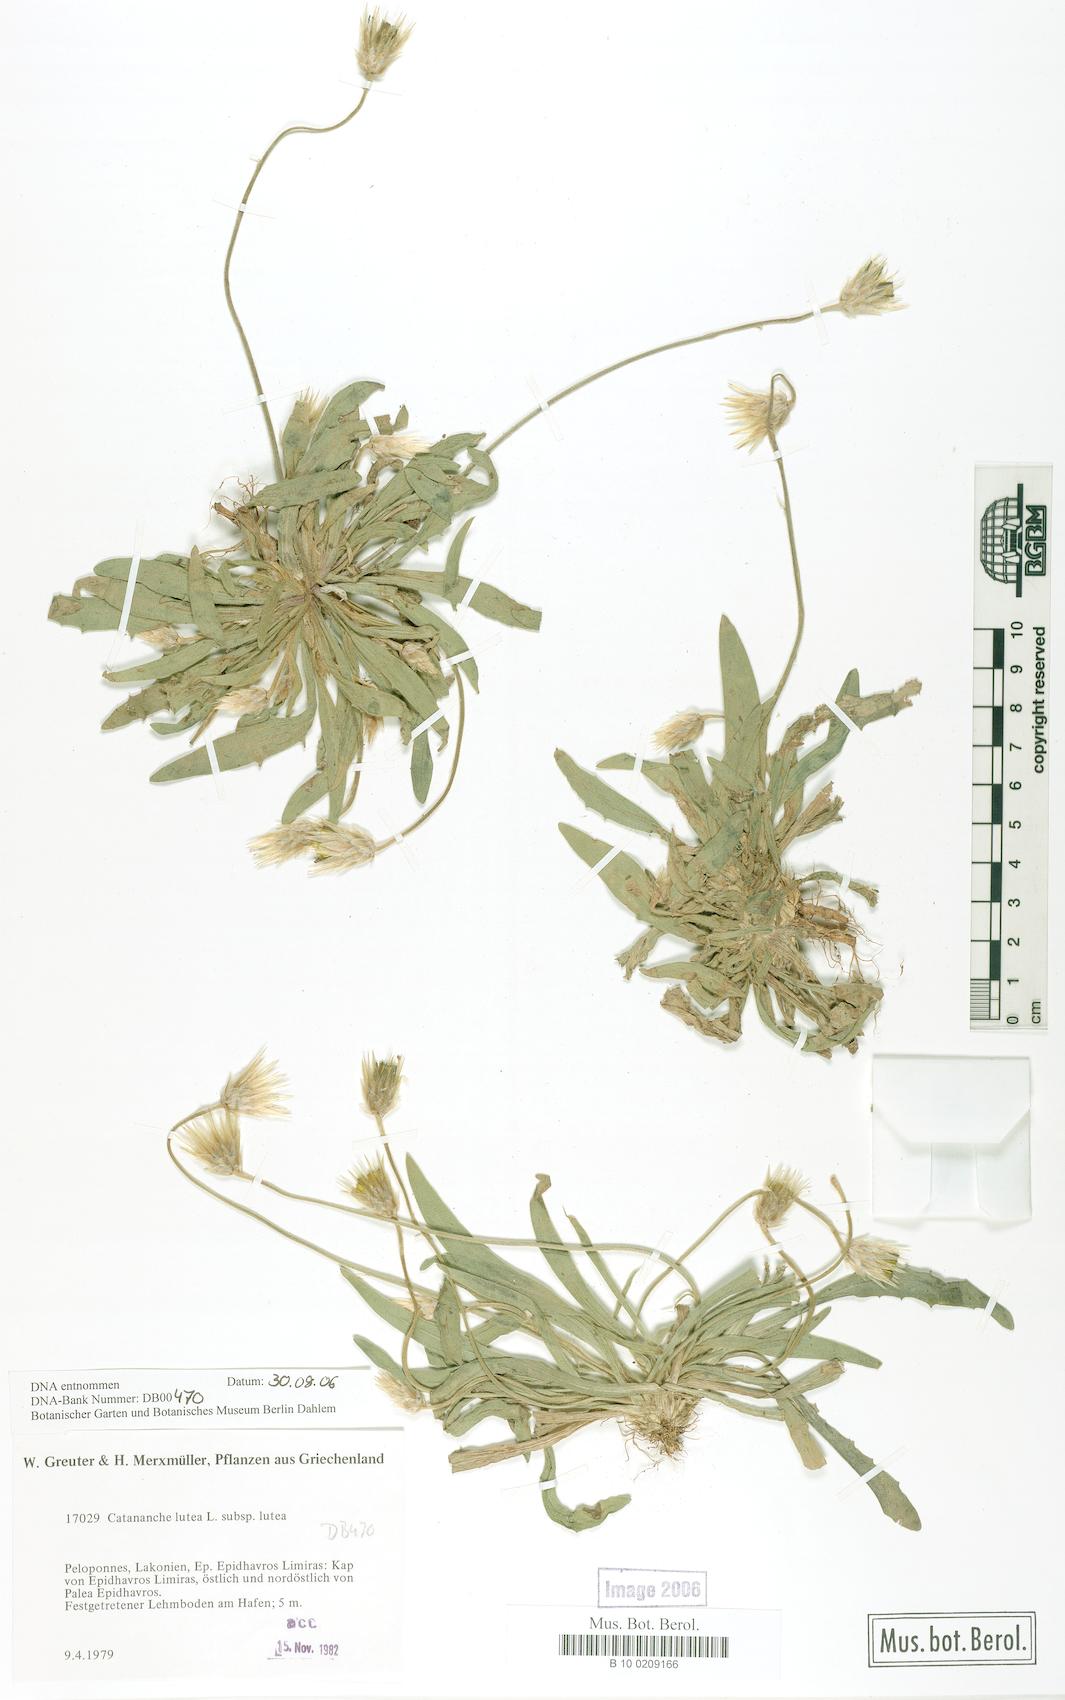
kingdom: Plantae
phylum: Tracheophyta
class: Magnoliopsida
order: Asterales
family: Asteraceae
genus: Catananche
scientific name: Catananche lutea
